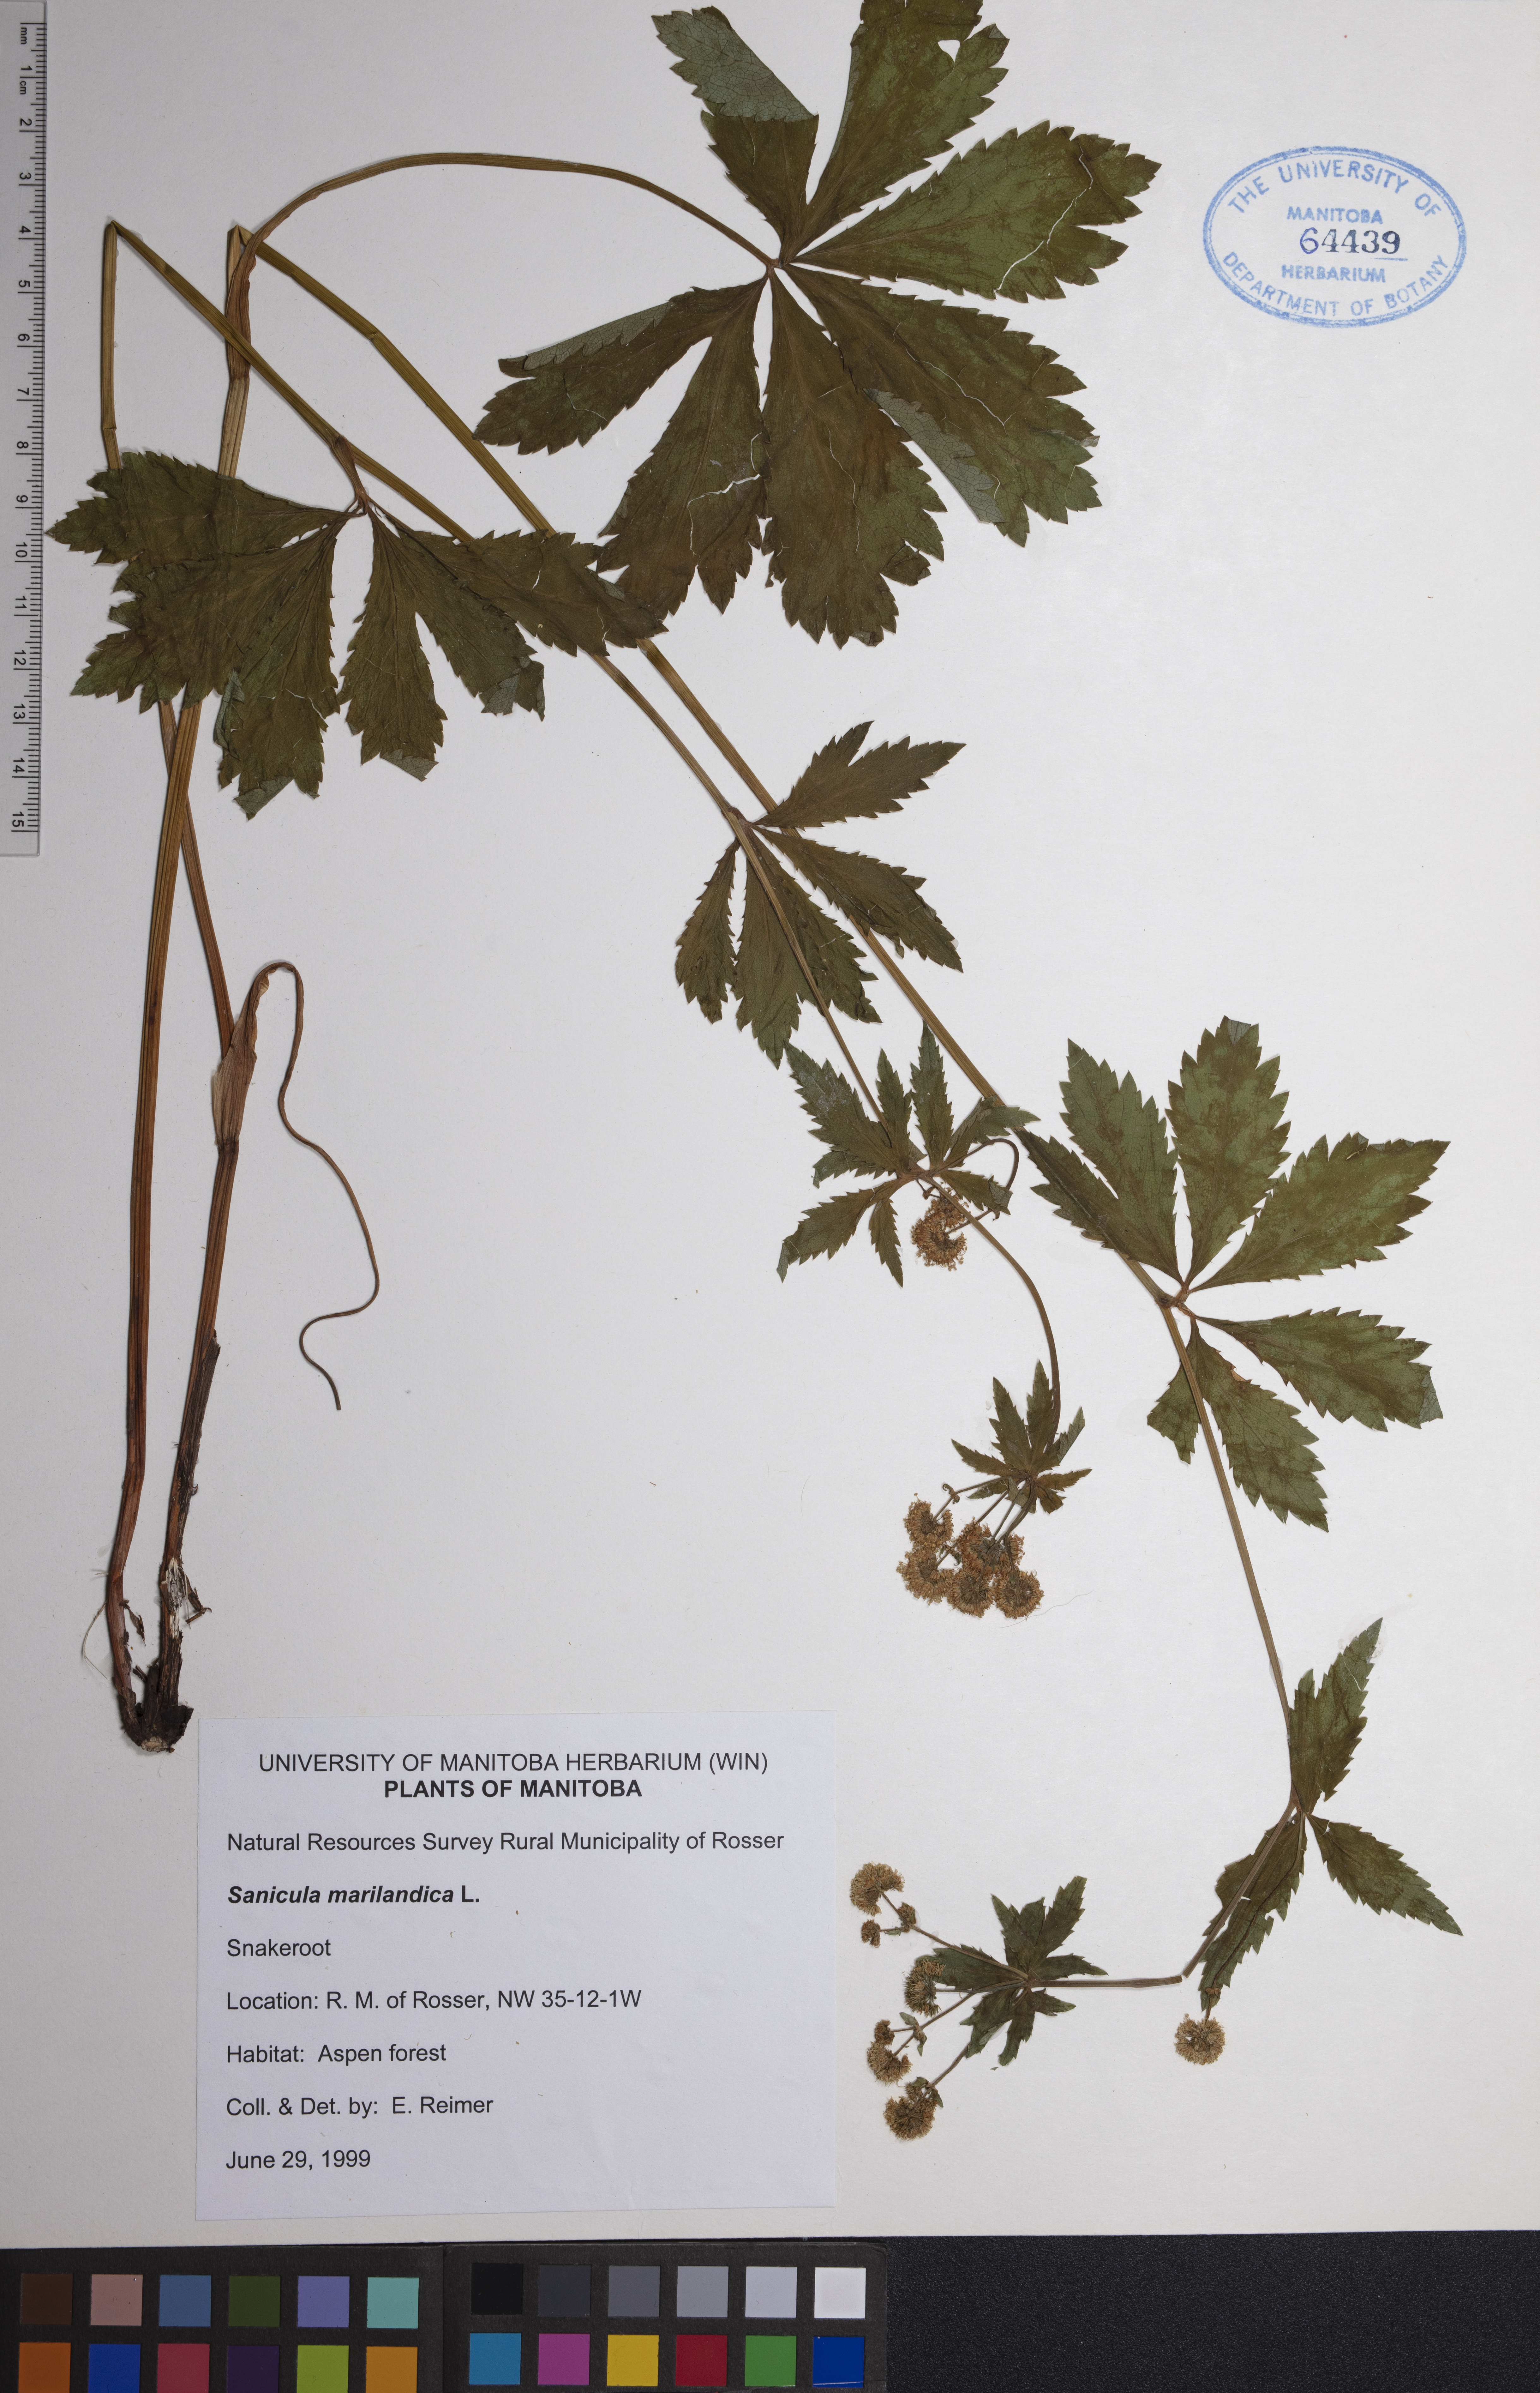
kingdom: Plantae
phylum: Tracheophyta
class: Magnoliopsida
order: Apiales
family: Apiaceae
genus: Sanicula
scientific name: Sanicula marilandica
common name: Black snakeroot
